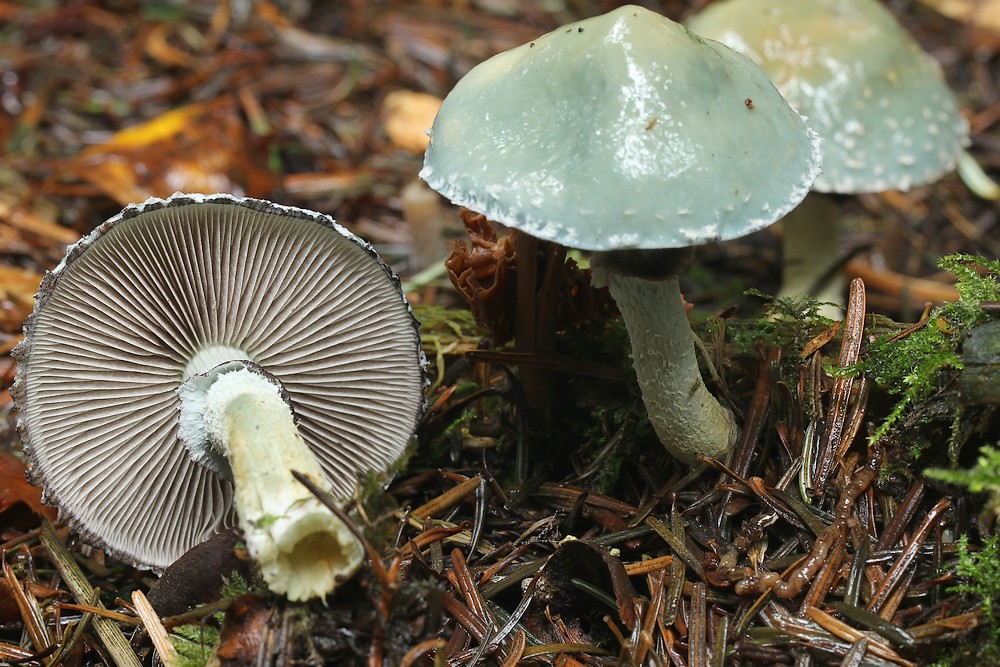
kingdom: Fungi
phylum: Basidiomycota
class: Agaricomycetes
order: Agaricales
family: Strophariaceae
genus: Stropharia
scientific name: Stropharia aeruginosa
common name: spanskgrøn bredblad
